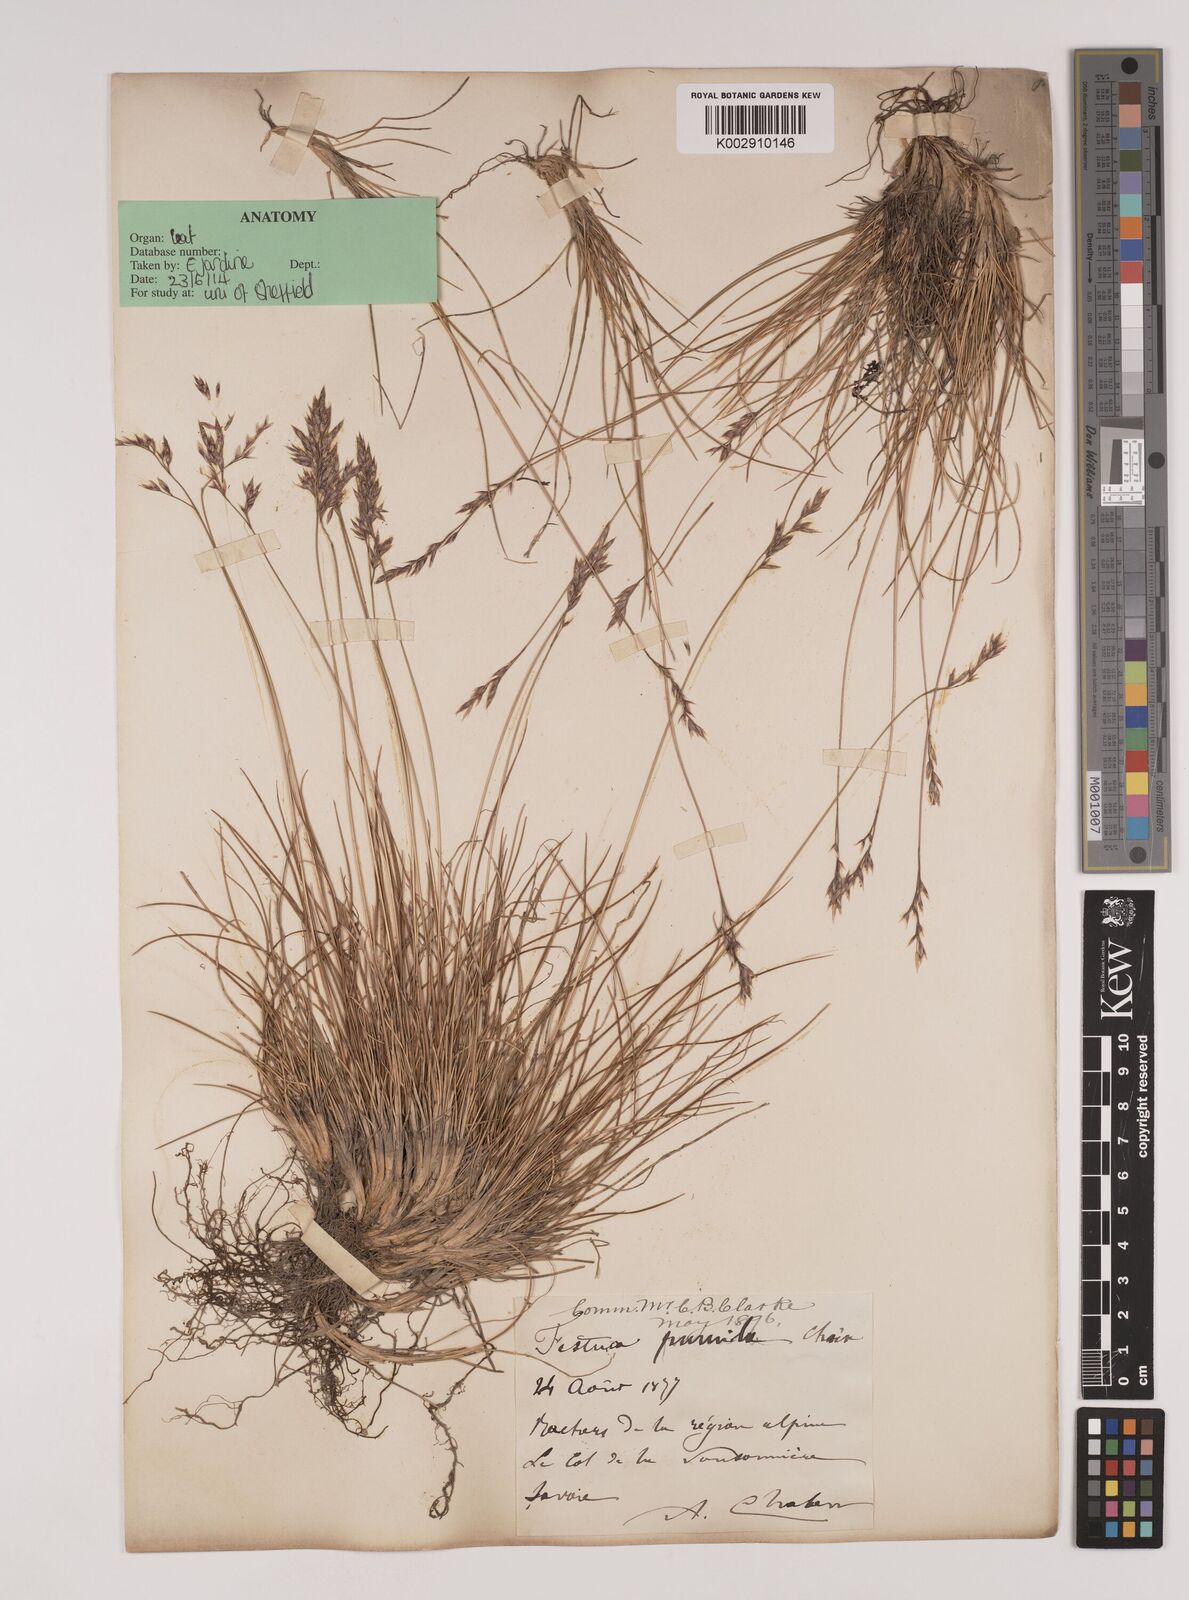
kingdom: Plantae
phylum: Tracheophyta
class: Liliopsida
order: Poales
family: Poaceae
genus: Festuca
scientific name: Festuca
